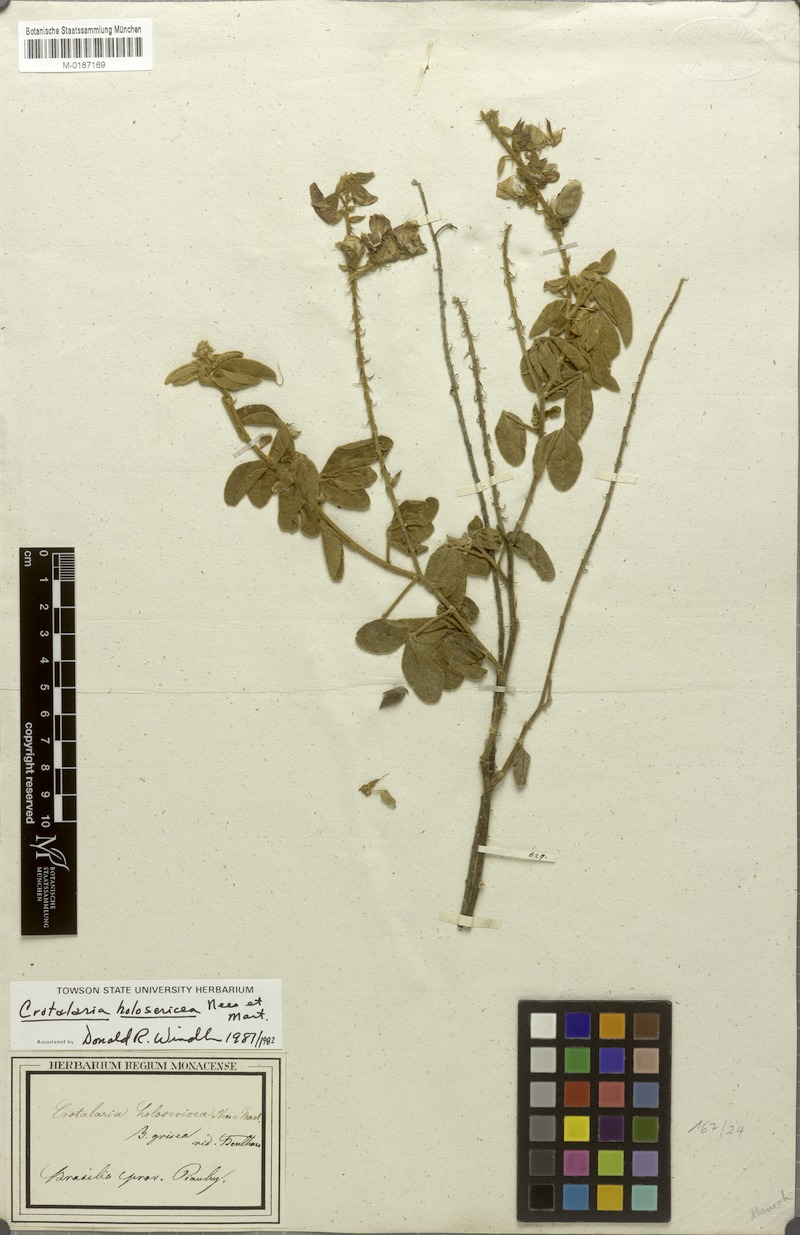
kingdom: Plantae
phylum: Tracheophyta
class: Magnoliopsida
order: Fabales
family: Fabaceae
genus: Crotalaria
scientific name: Crotalaria holosericea
